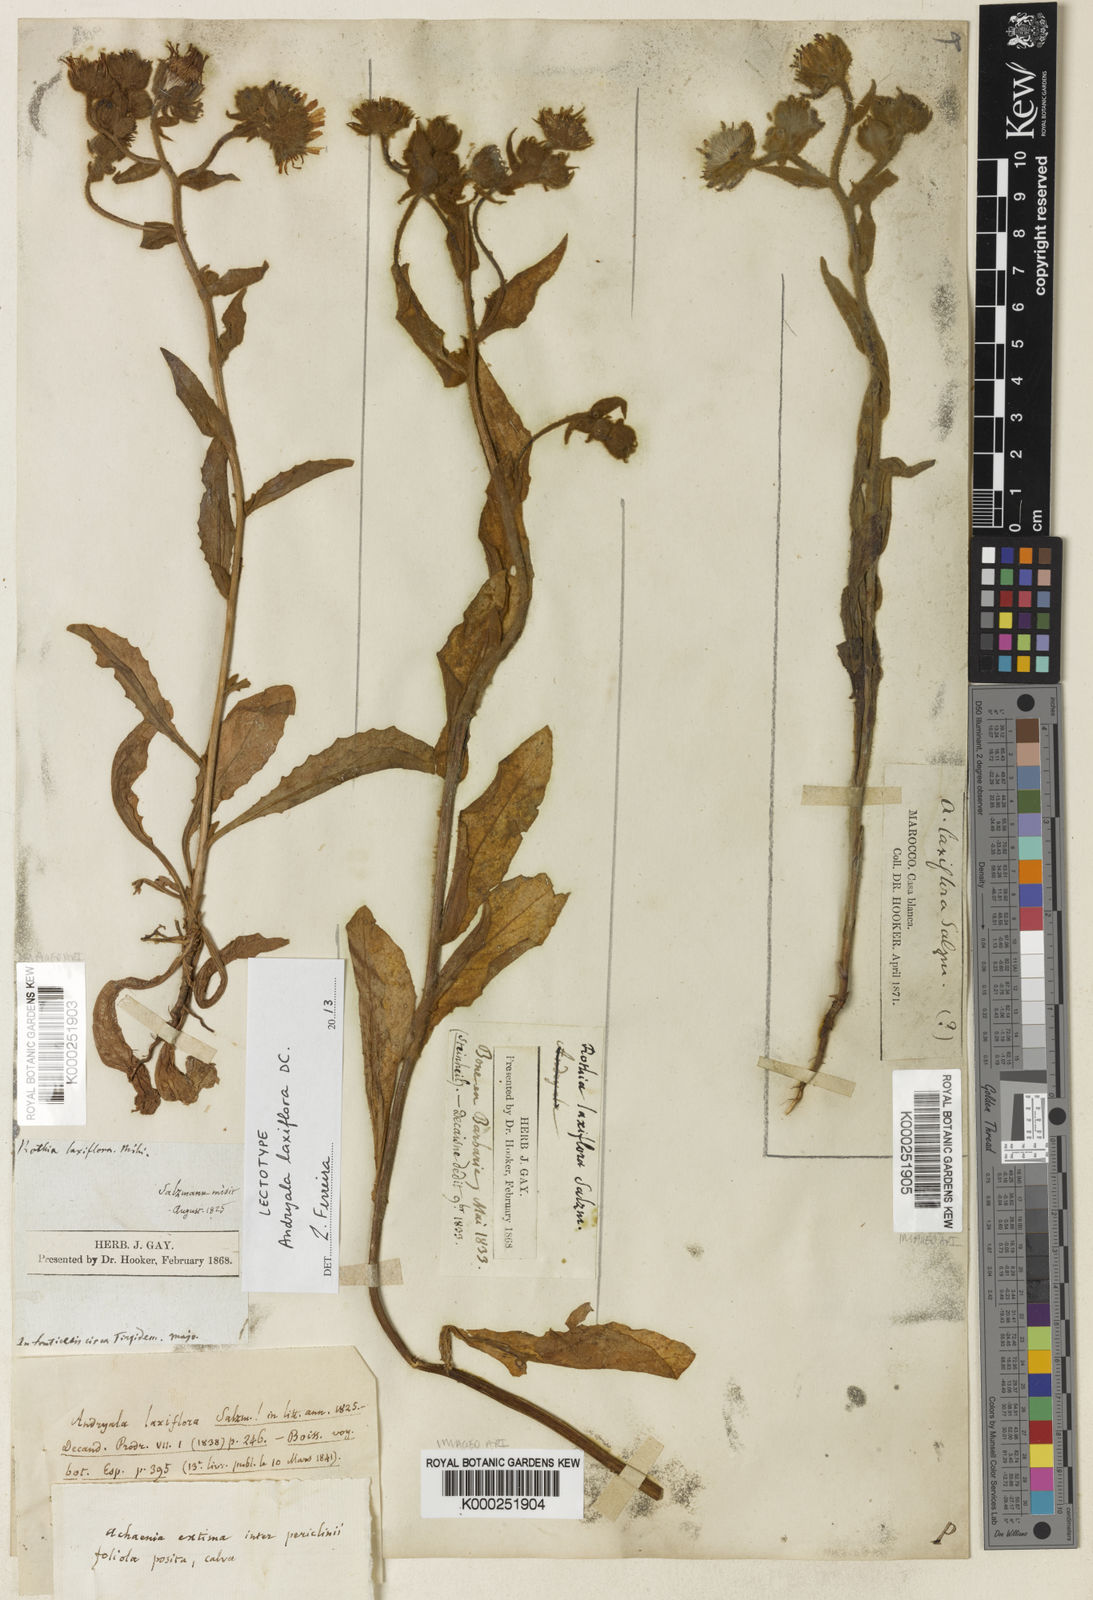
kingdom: Plantae
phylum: Tracheophyta
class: Magnoliopsida
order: Asterales
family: Asteraceae
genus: Andryala
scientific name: Andryala rothia
